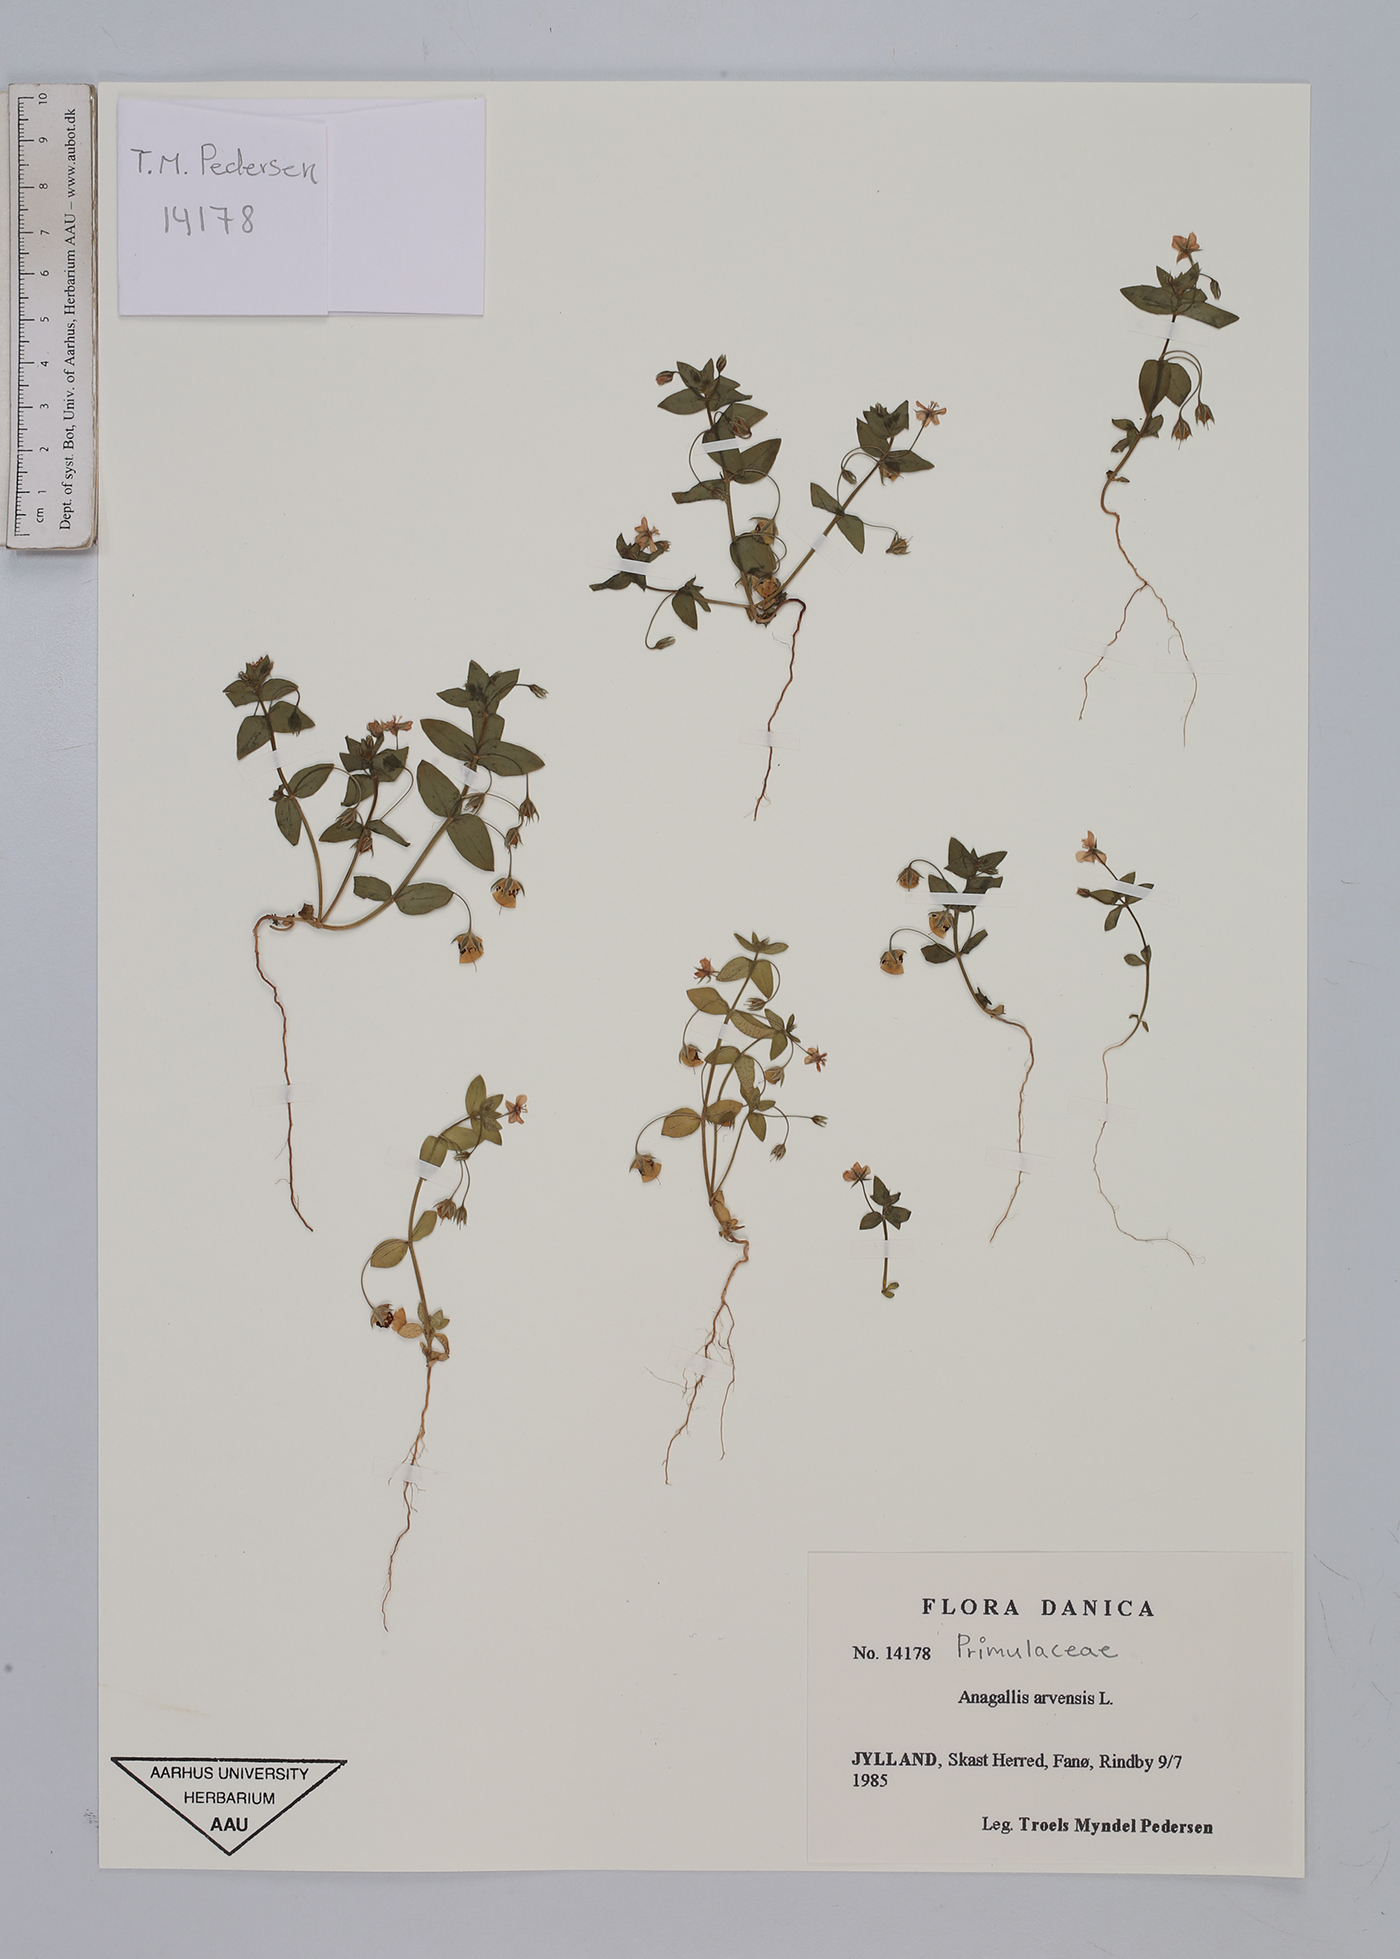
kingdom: Plantae
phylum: Tracheophyta
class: Magnoliopsida
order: Ericales
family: Primulaceae
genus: Lysimachia
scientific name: Lysimachia arvensis
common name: Scarlet pimpernel
